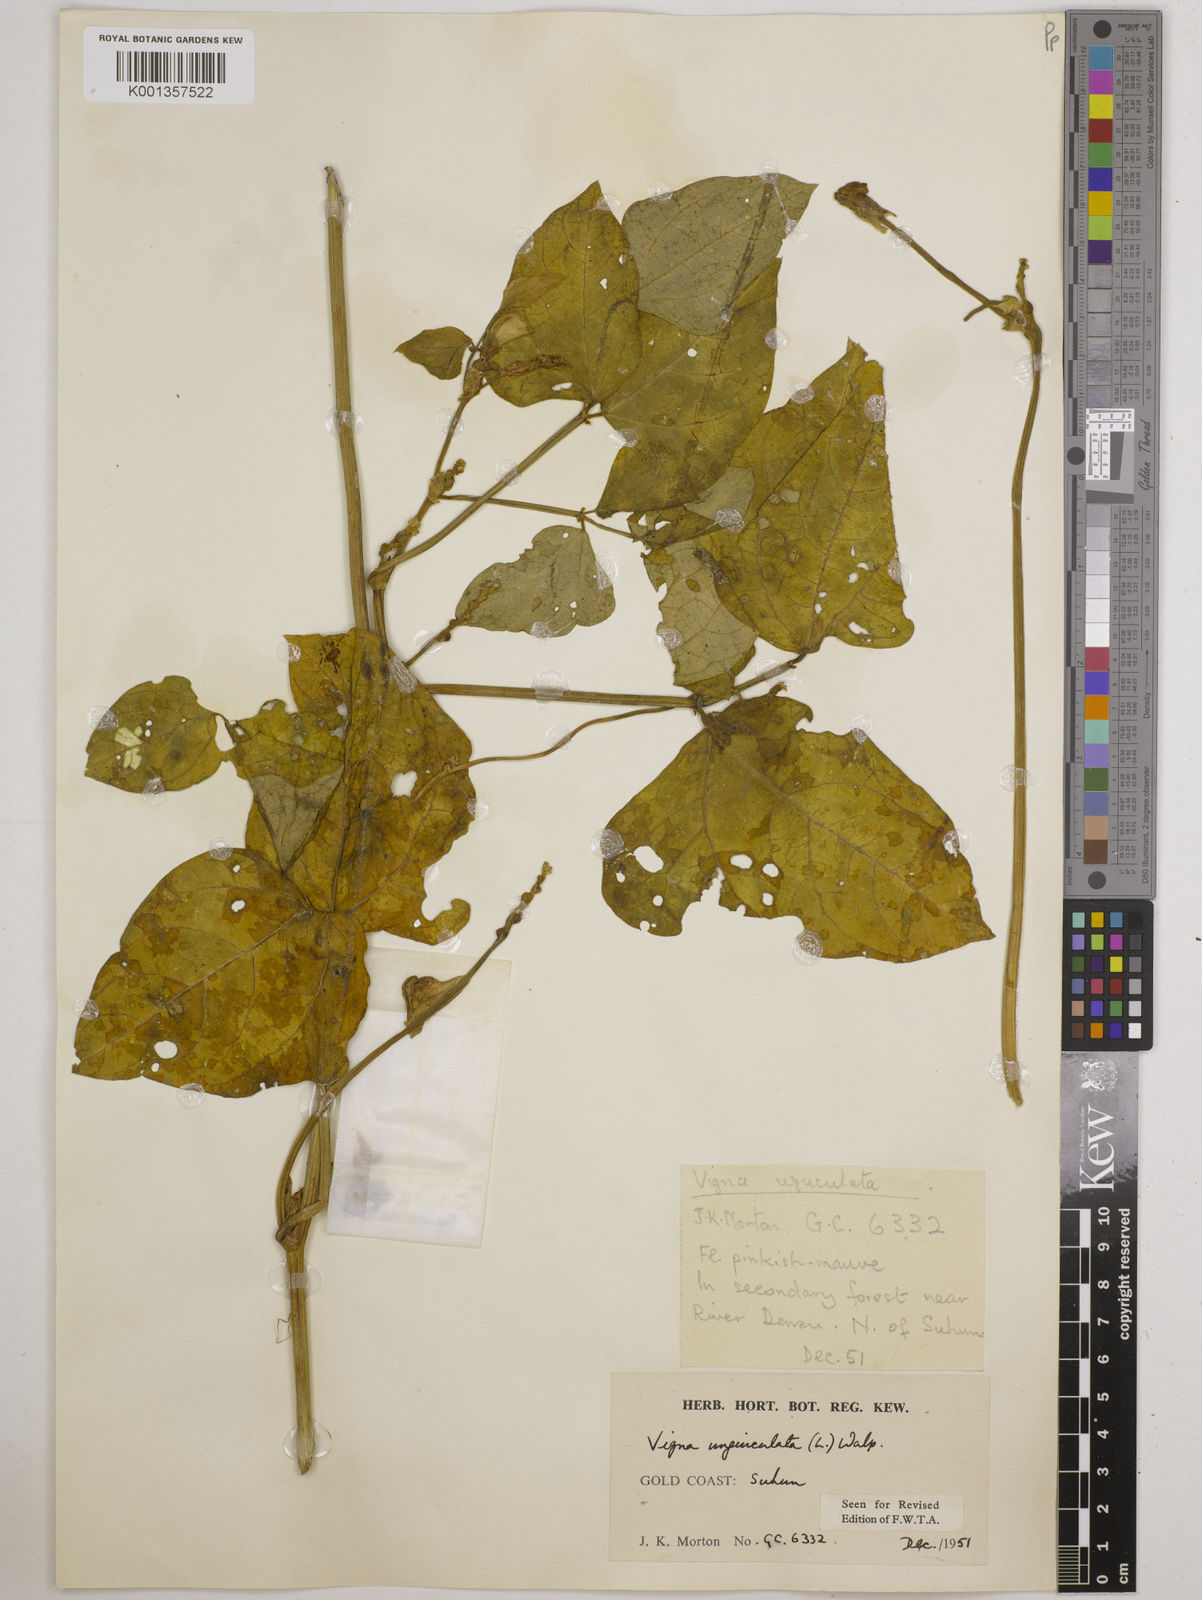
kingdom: Plantae
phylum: Tracheophyta
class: Magnoliopsida
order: Fabales
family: Fabaceae
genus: Vigna
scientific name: Vigna
